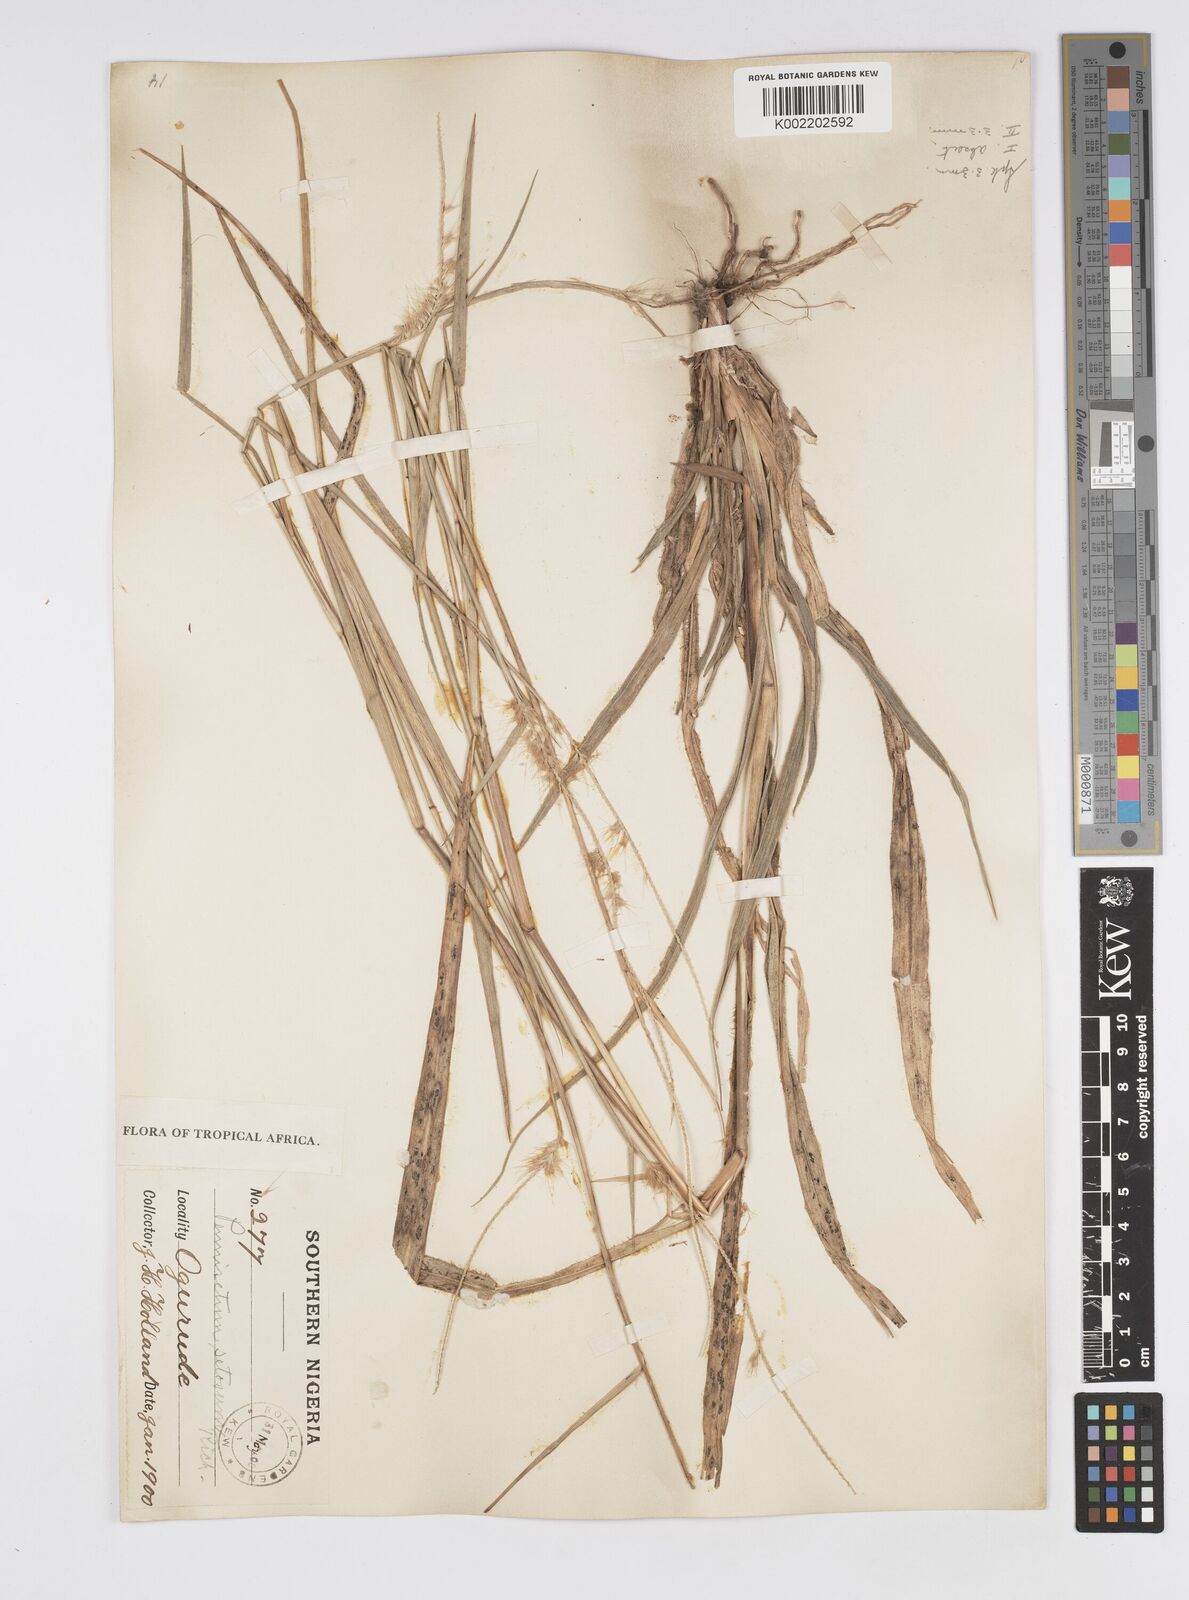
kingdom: Plantae
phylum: Tracheophyta
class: Liliopsida
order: Poales
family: Poaceae
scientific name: Poaceae
